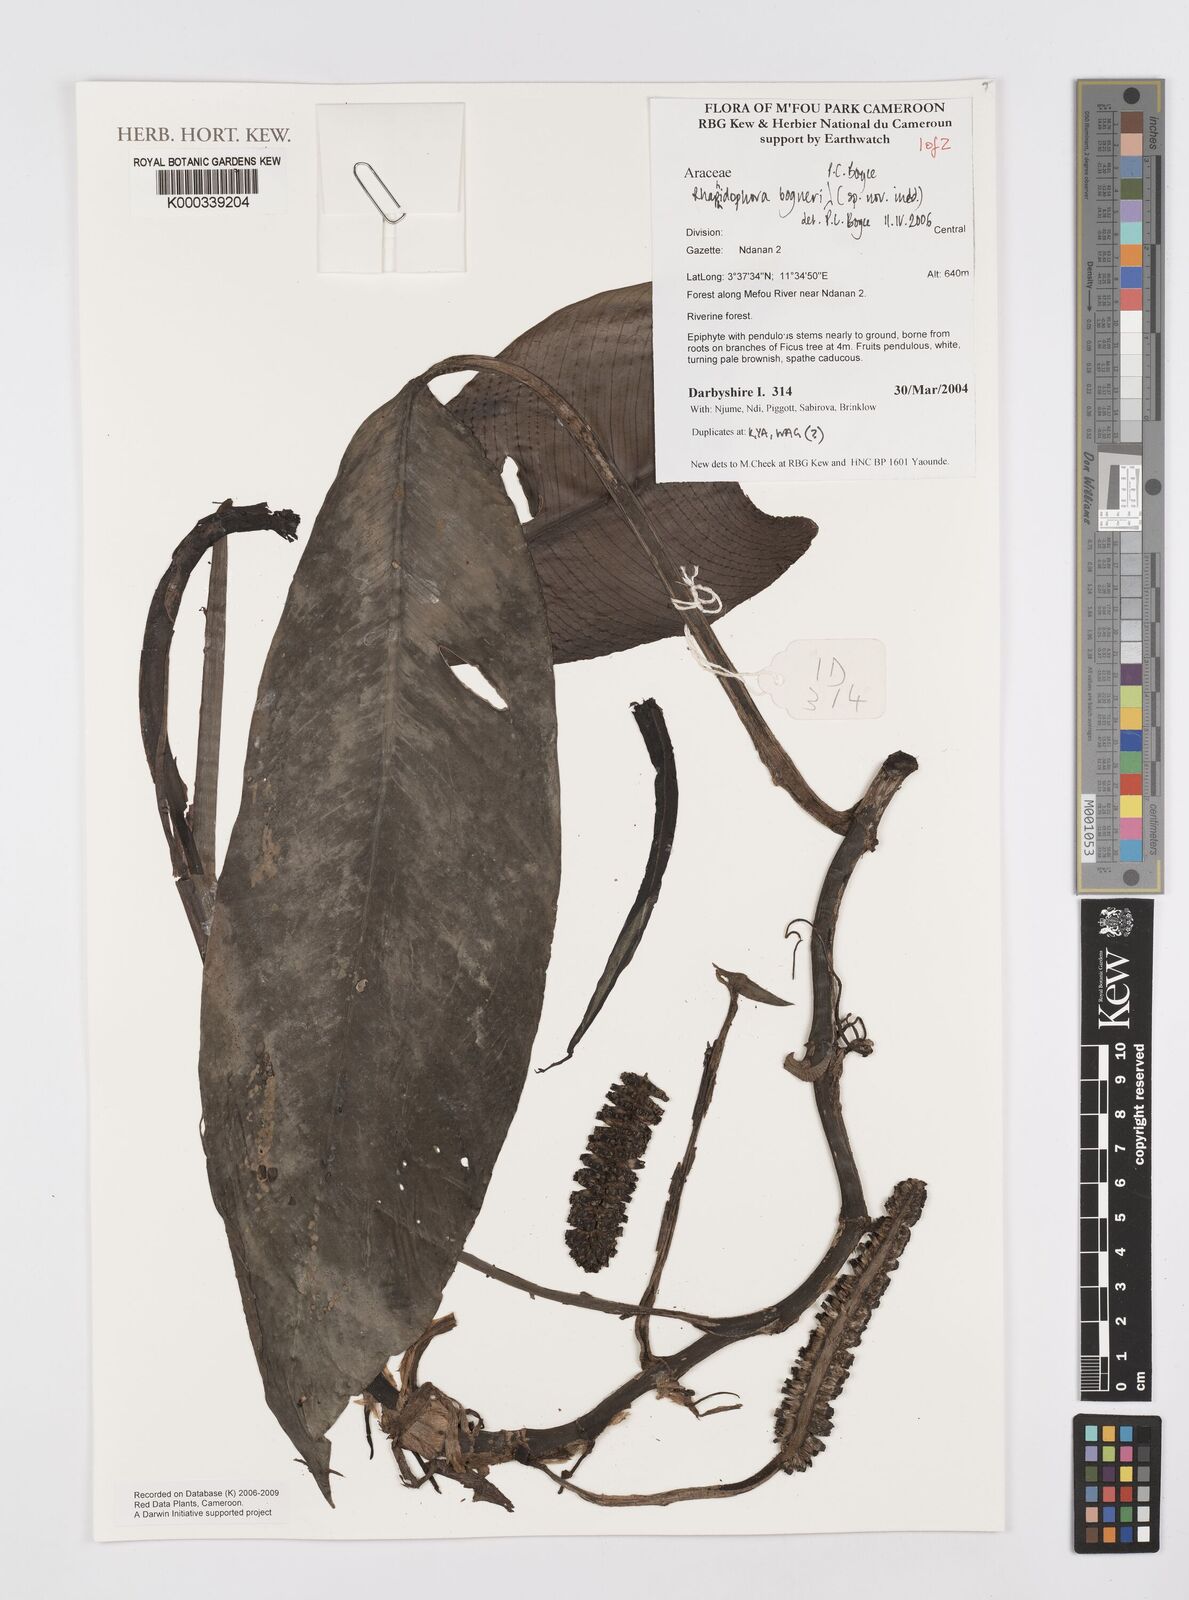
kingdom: Plantae
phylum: Tracheophyta
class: Liliopsida
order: Alismatales
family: Araceae
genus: Rhaphidophora
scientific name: Rhaphidophora bogneri
